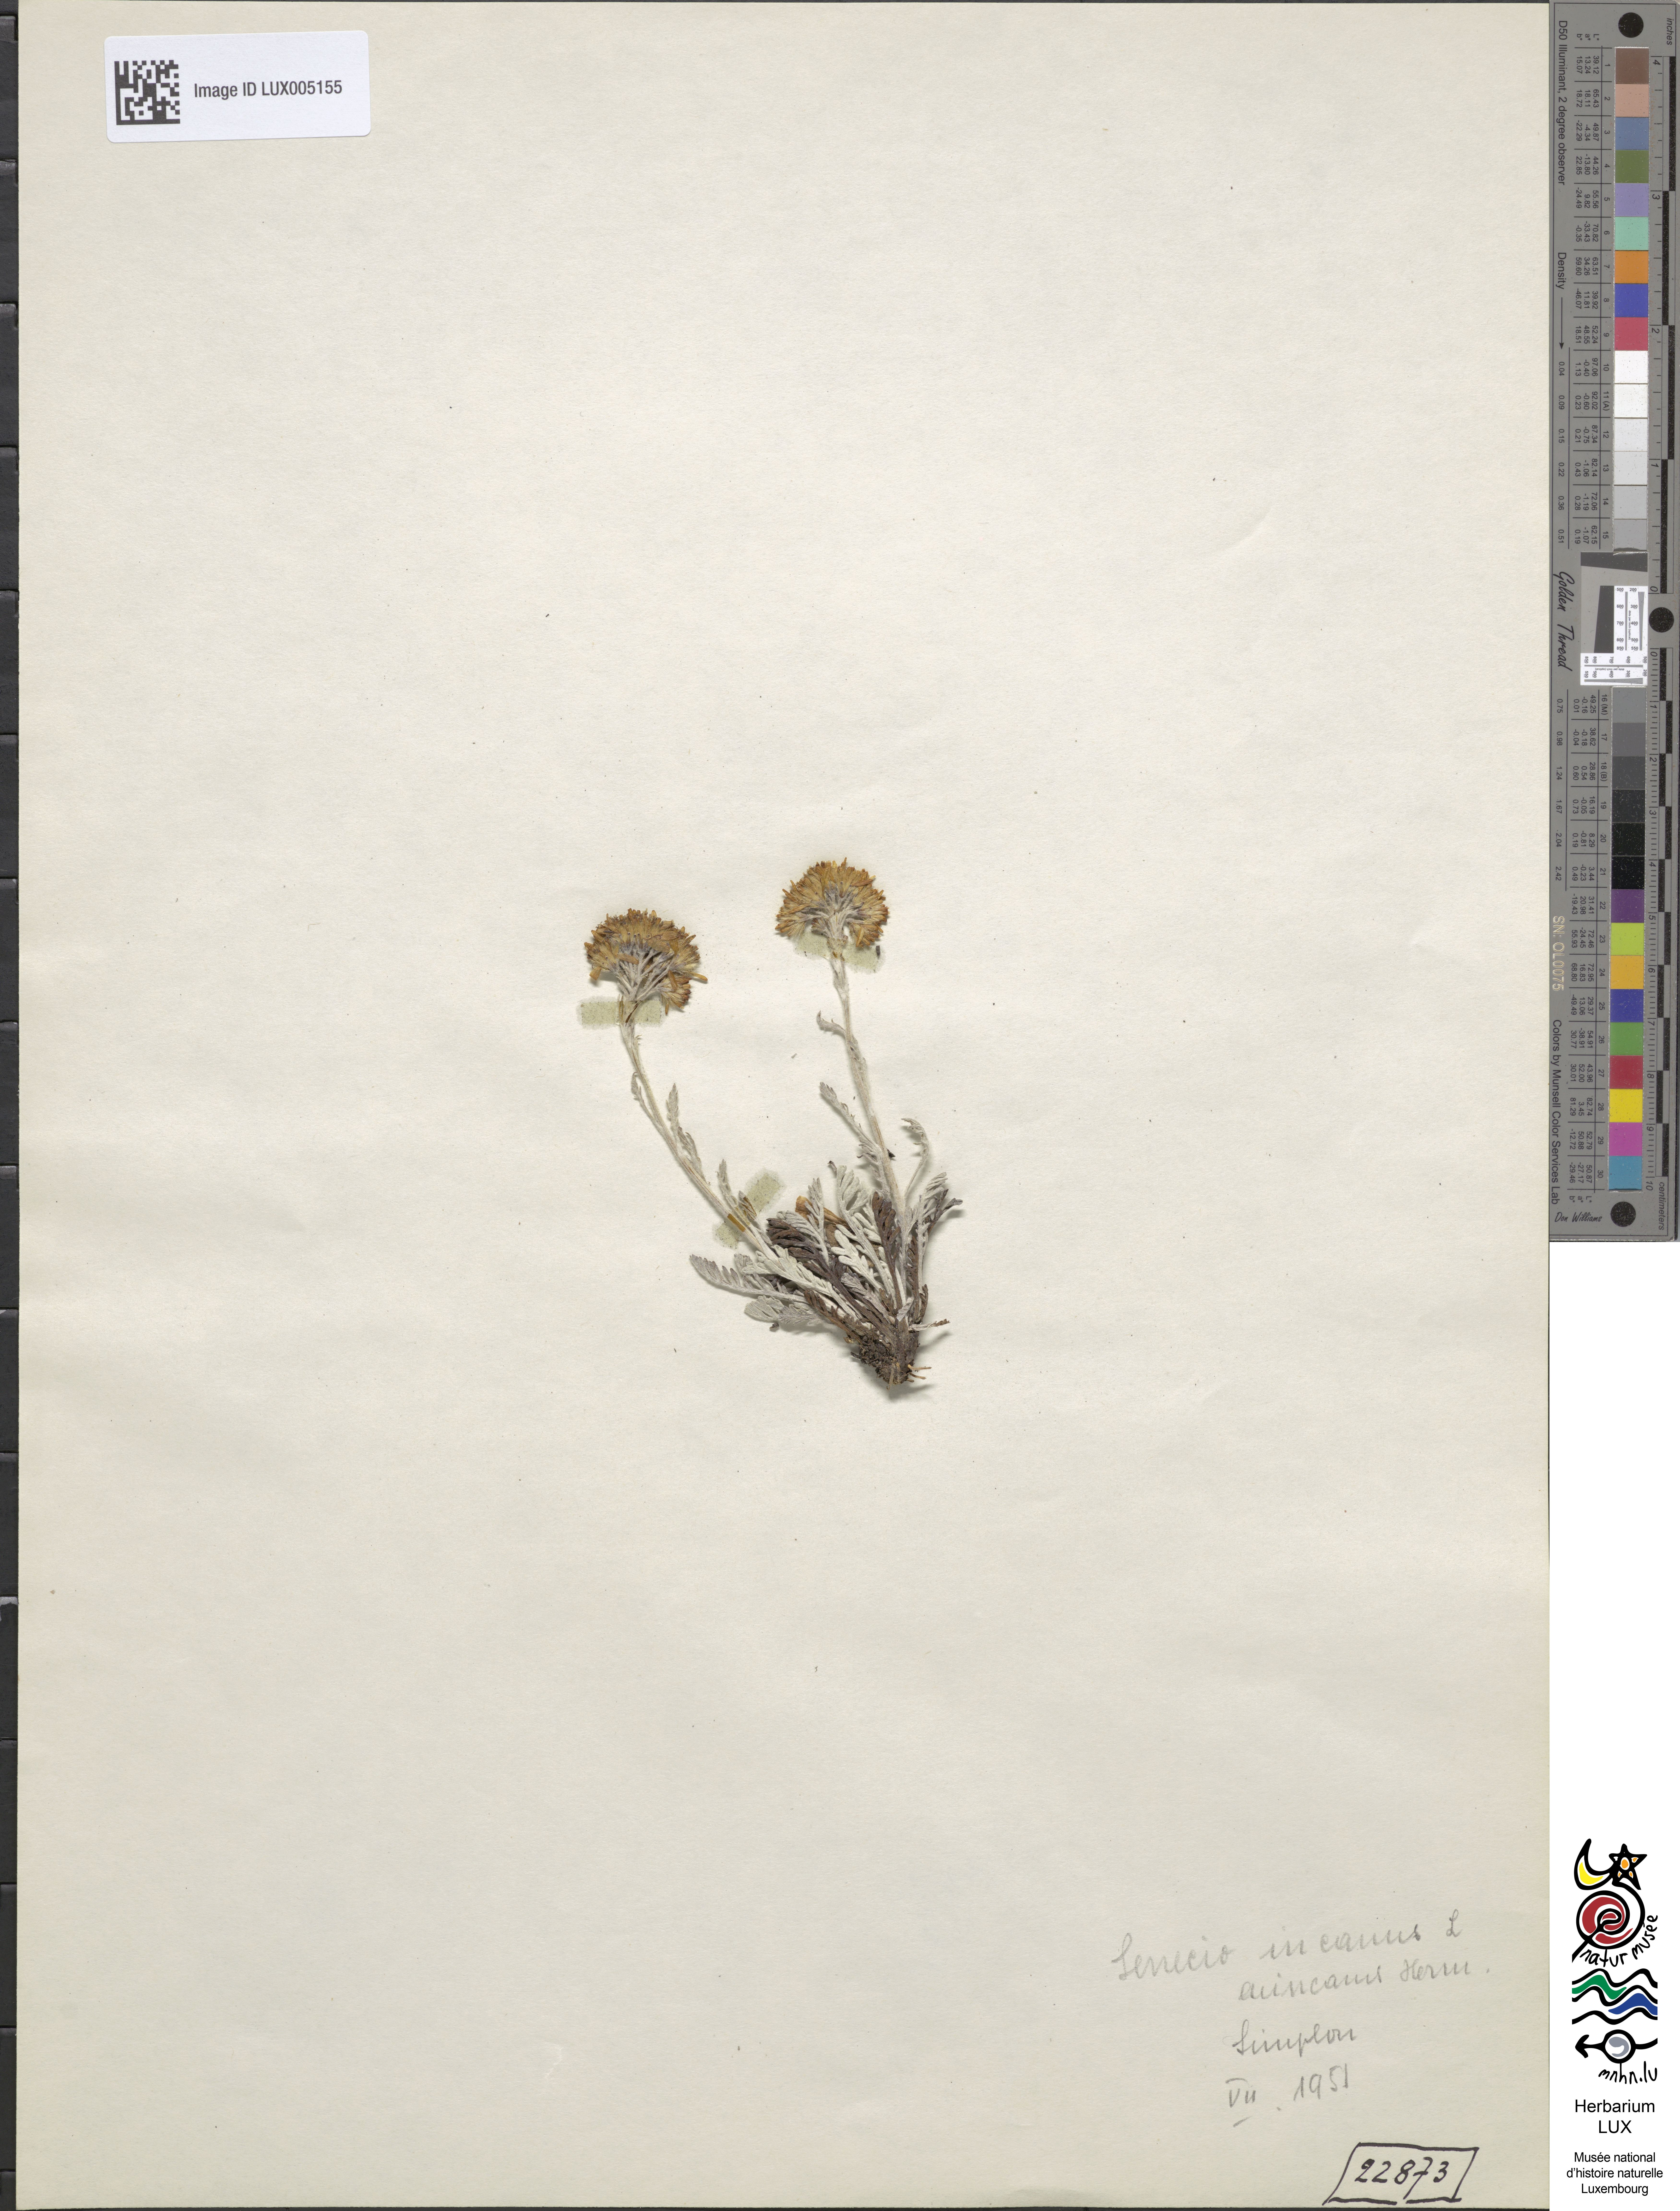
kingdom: Plantae
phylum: Tracheophyta
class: Magnoliopsida
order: Asterales
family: Asteraceae
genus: Jacobaea
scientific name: Jacobaea incana
